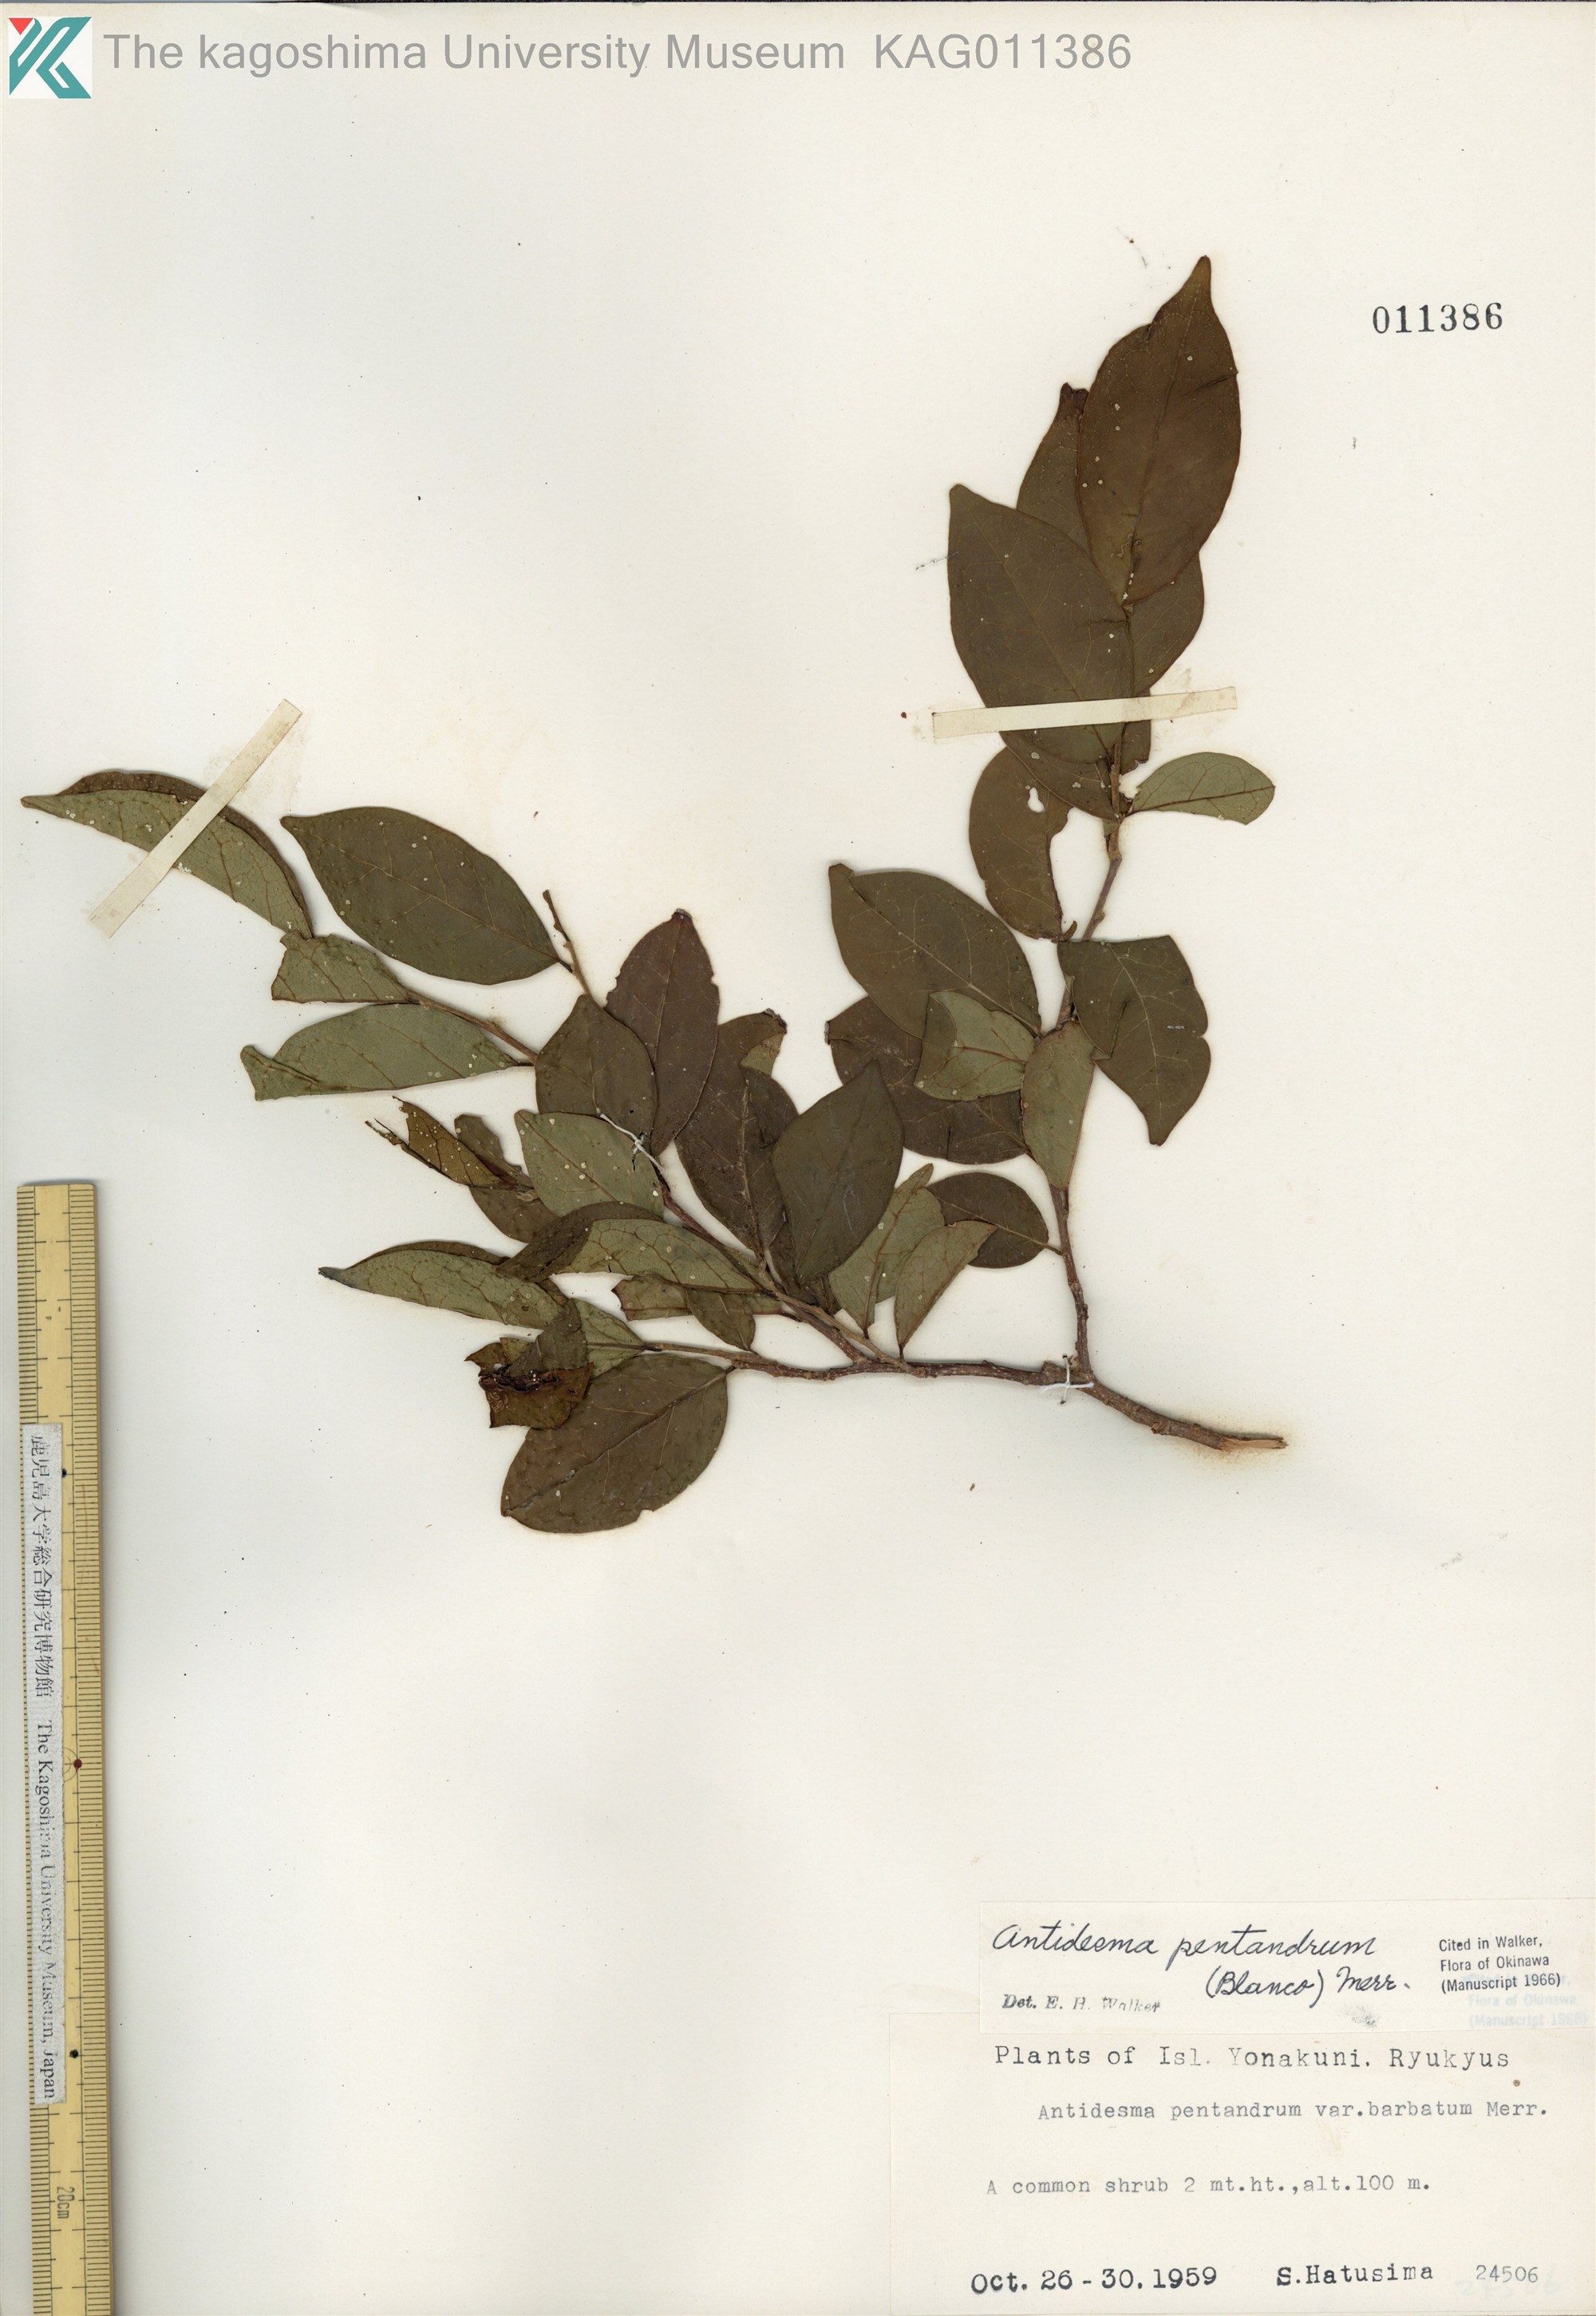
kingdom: Plantae
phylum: Tracheophyta
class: Magnoliopsida
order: Malpighiales
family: Phyllanthaceae
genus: Antidesma
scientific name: Antidesma montanum
